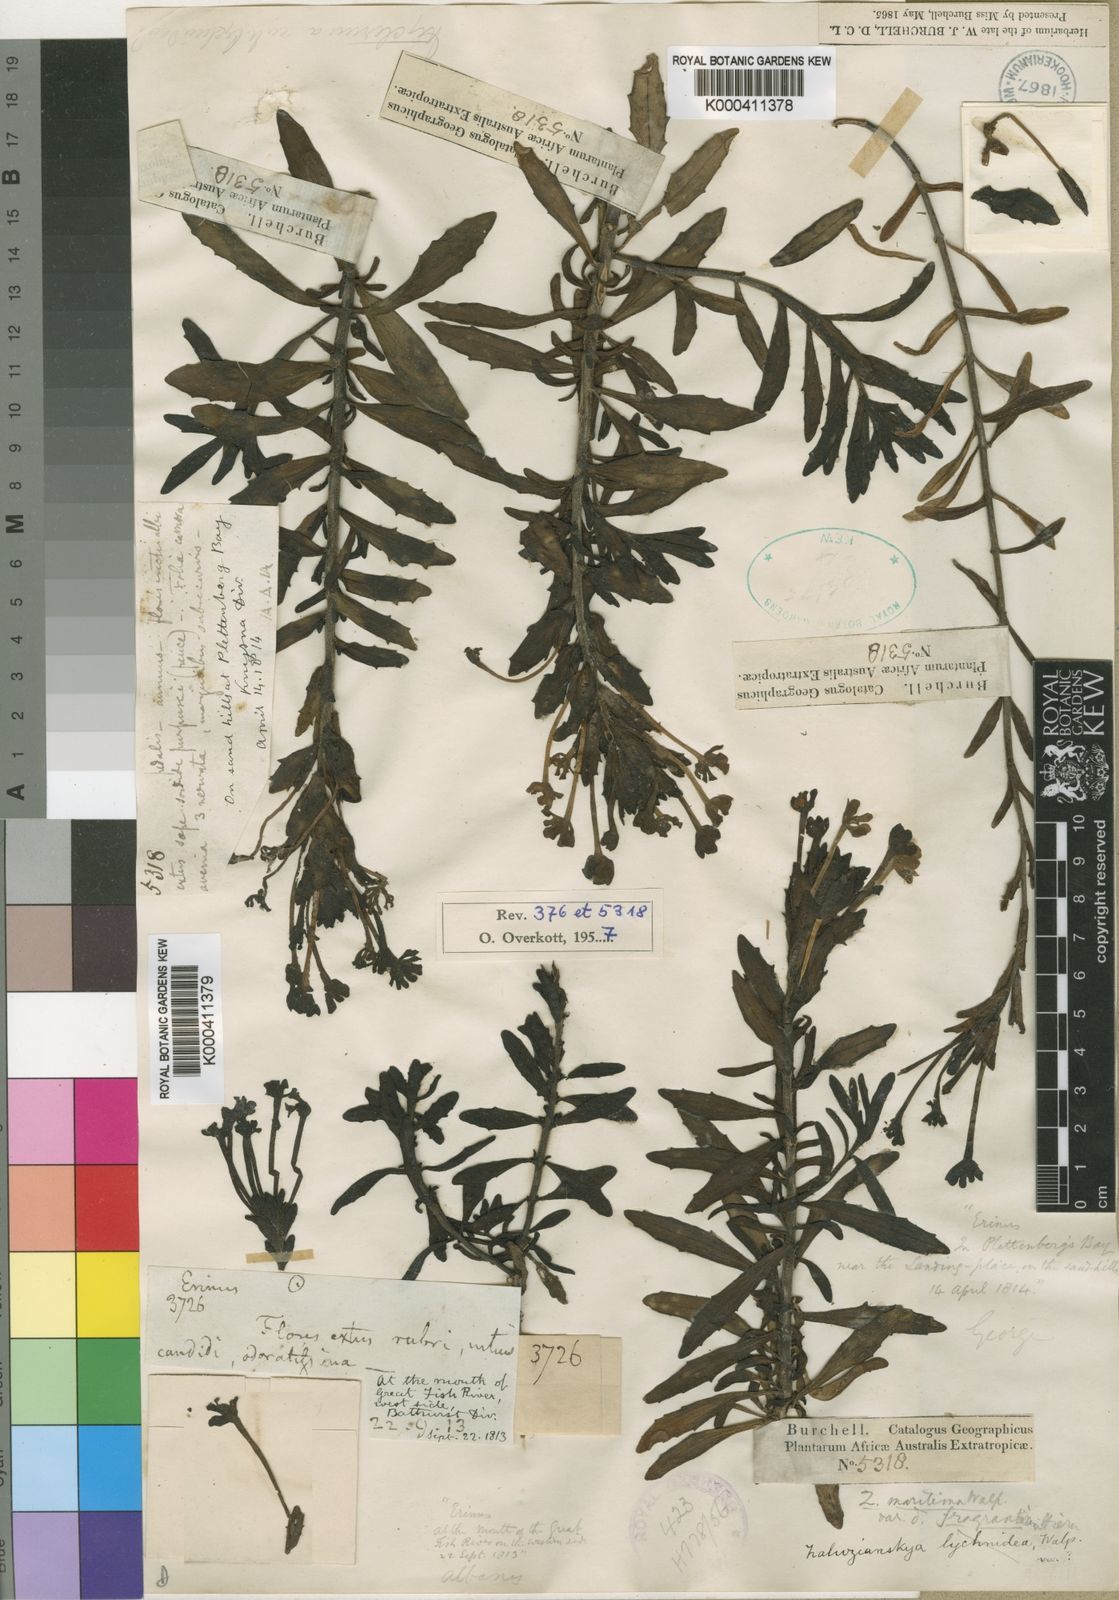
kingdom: Plantae
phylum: Tracheophyta
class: Magnoliopsida
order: Lamiales
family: Scrophulariaceae
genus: Zaluzianskya
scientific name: Zaluzianskya maritima
